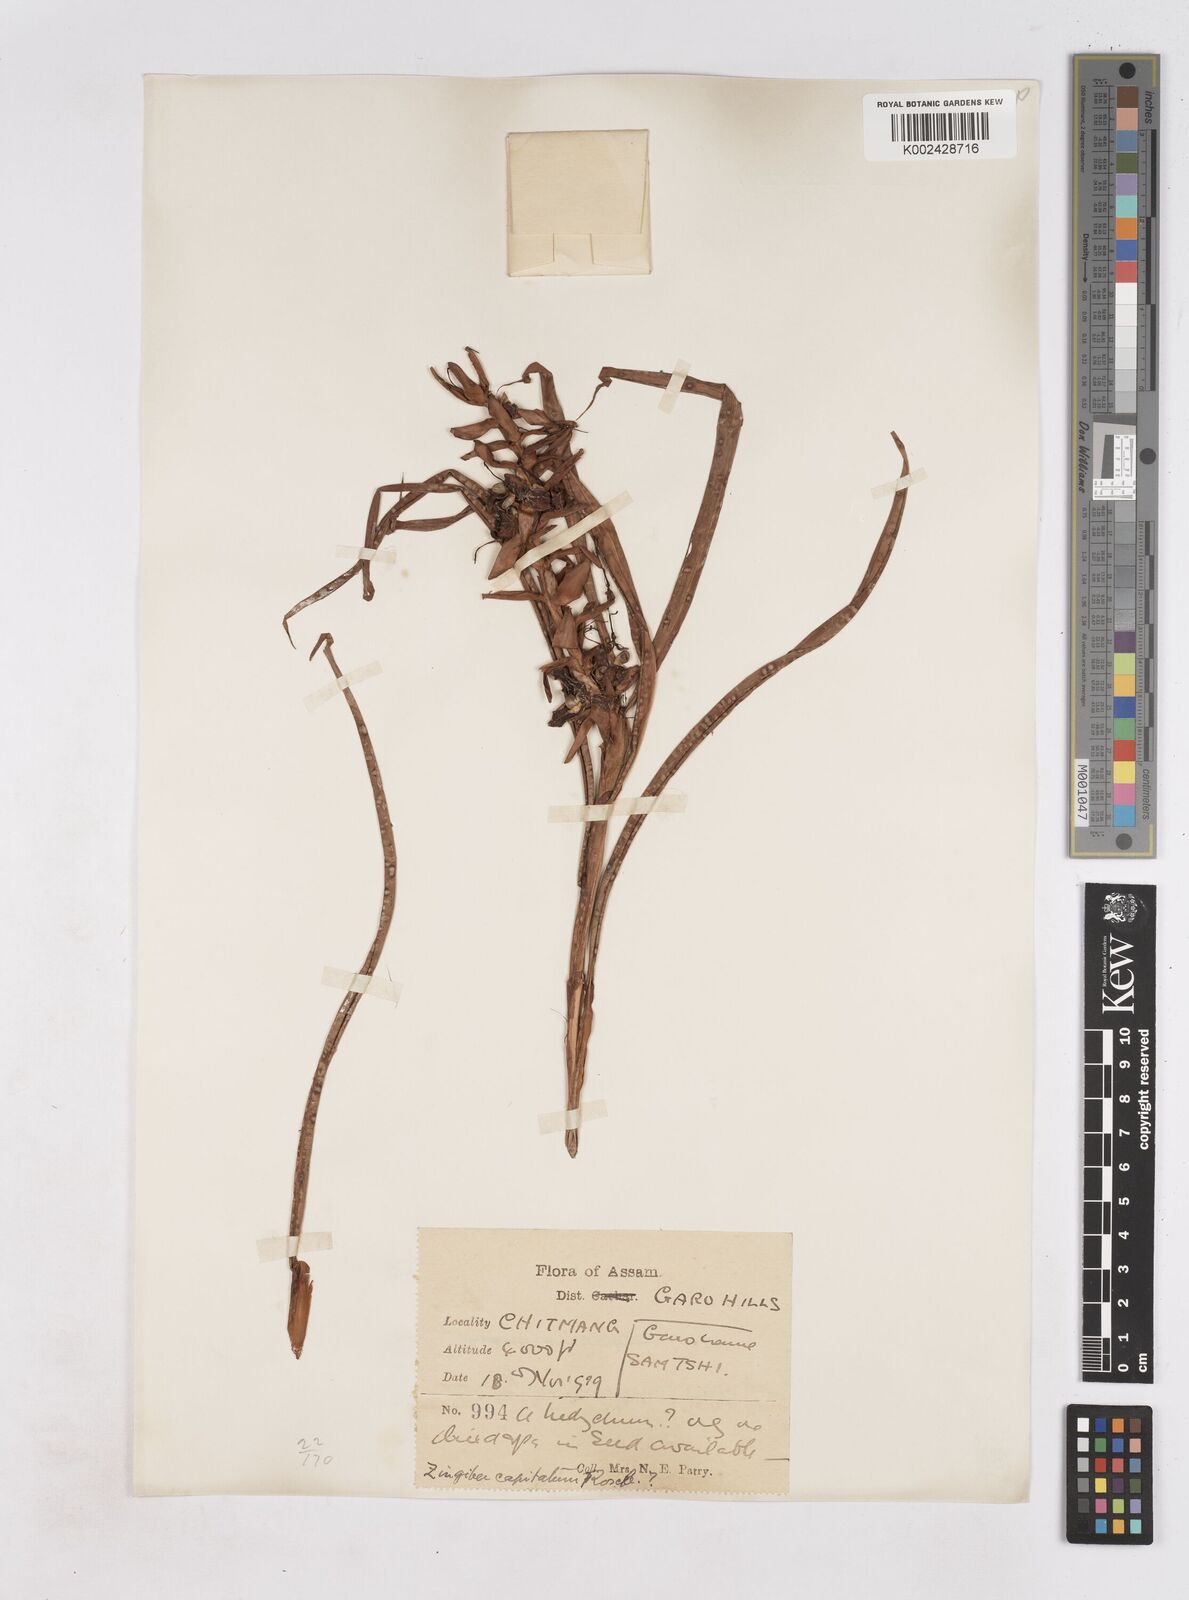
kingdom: Plantae
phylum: Tracheophyta
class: Liliopsida
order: Zingiberales
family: Zingiberaceae
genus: Zingiber
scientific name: Zingiber capitatum
